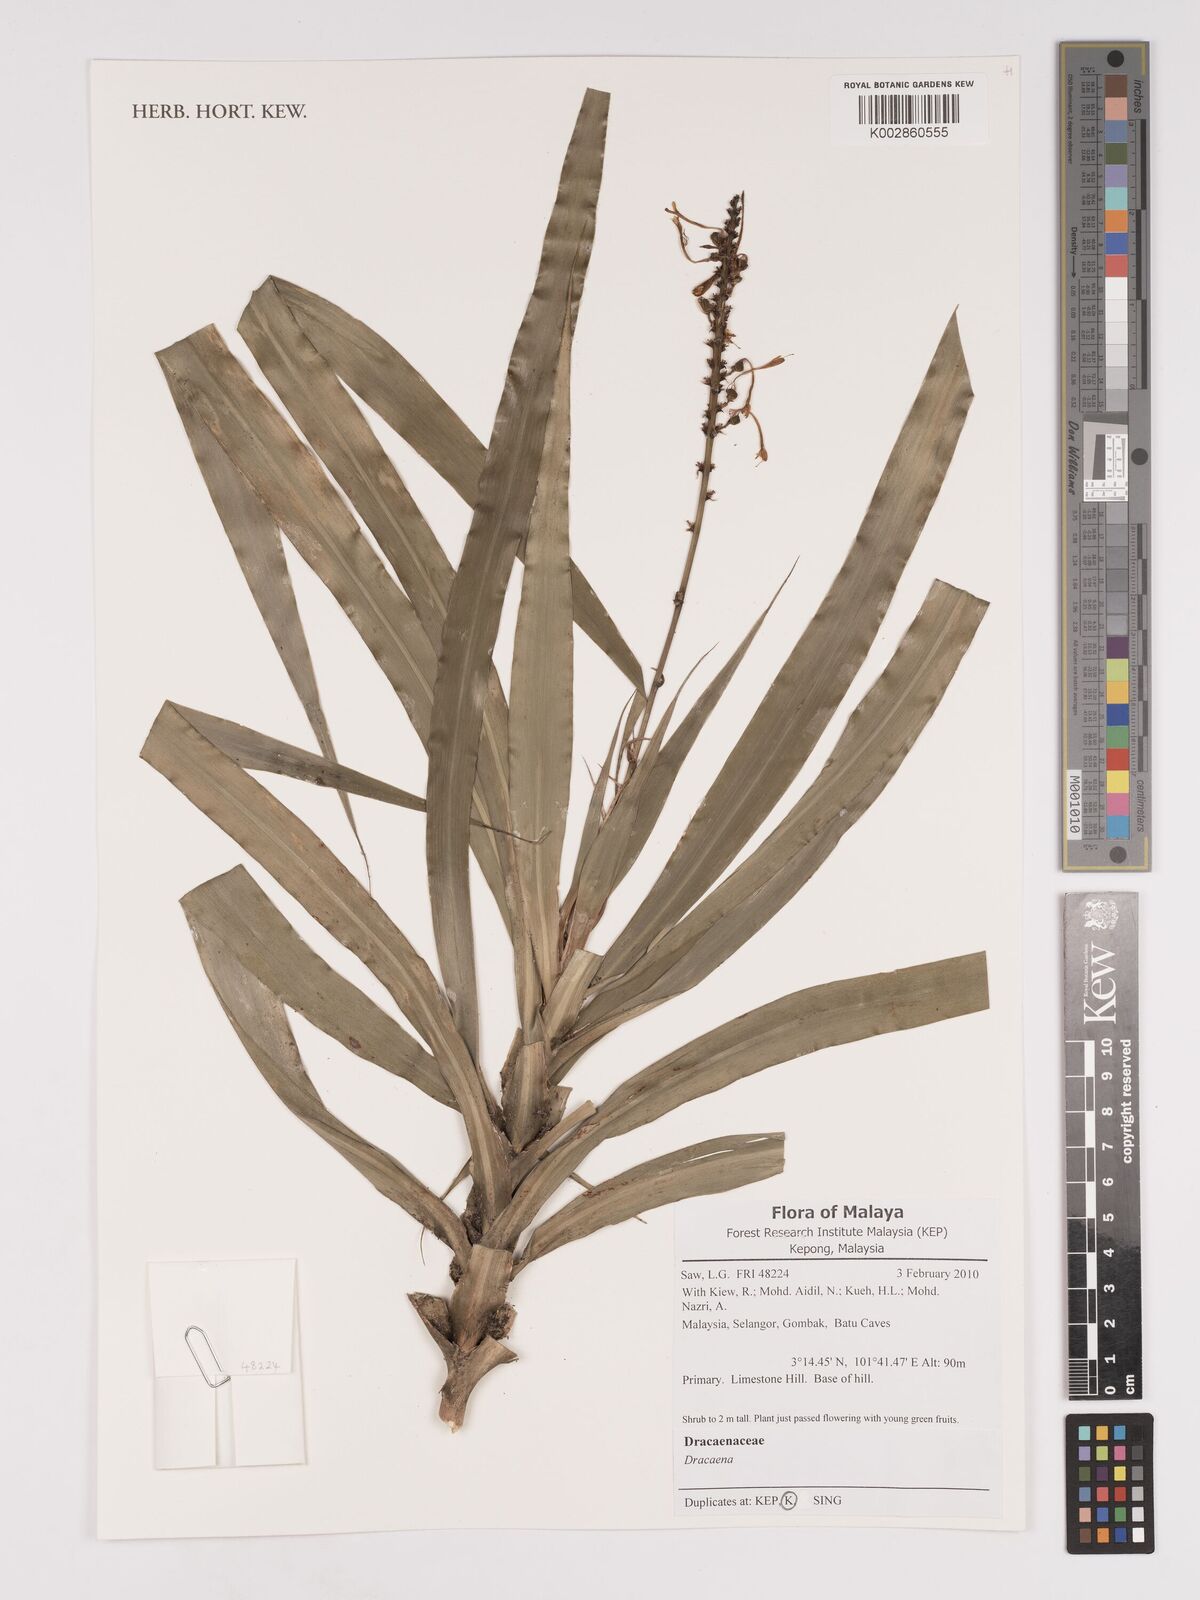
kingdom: Plantae
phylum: Tracheophyta
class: Liliopsida
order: Asparagales
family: Asparagaceae
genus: Dracaena
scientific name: Dracaena
